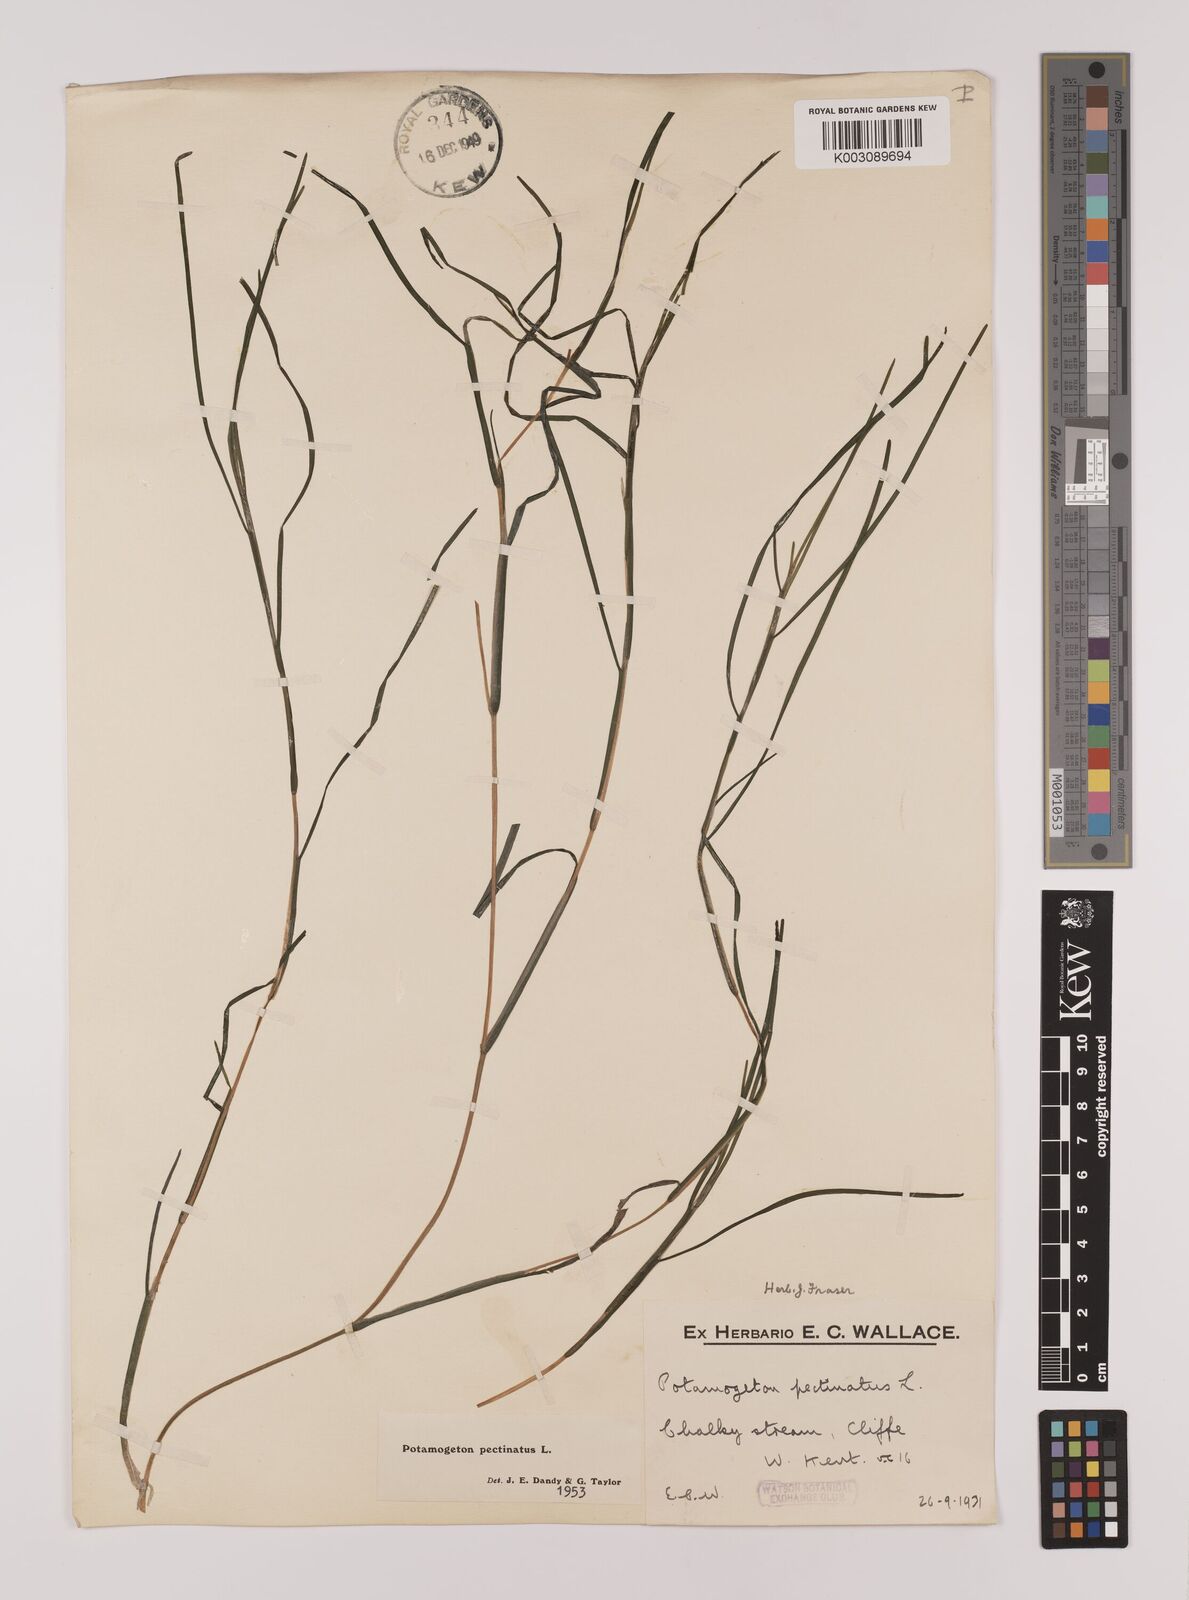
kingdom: Plantae
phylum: Tracheophyta
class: Liliopsida
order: Alismatales
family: Potamogetonaceae
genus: Stuckenia
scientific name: Stuckenia pectinata
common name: Sago pondweed
